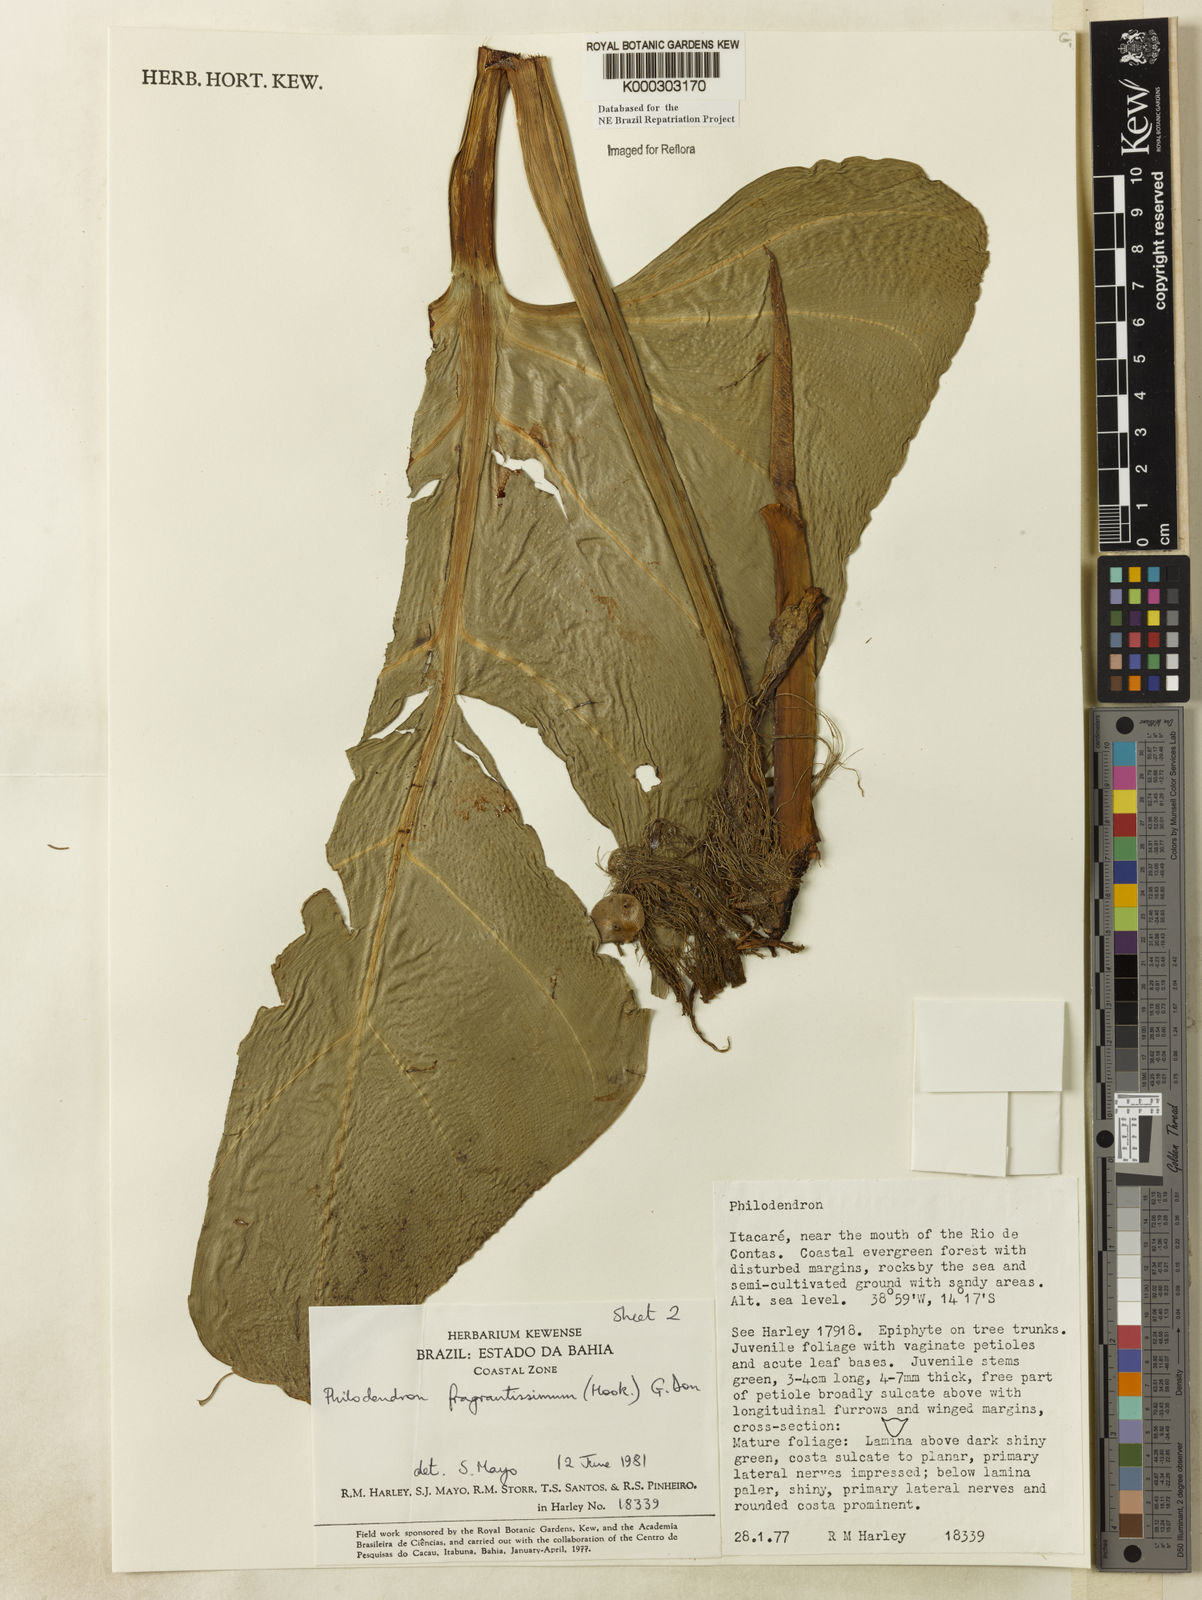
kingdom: Plantae
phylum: Tracheophyta
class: Liliopsida
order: Alismatales
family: Araceae
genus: Philodendron
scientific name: Philodendron fragrantissimum
